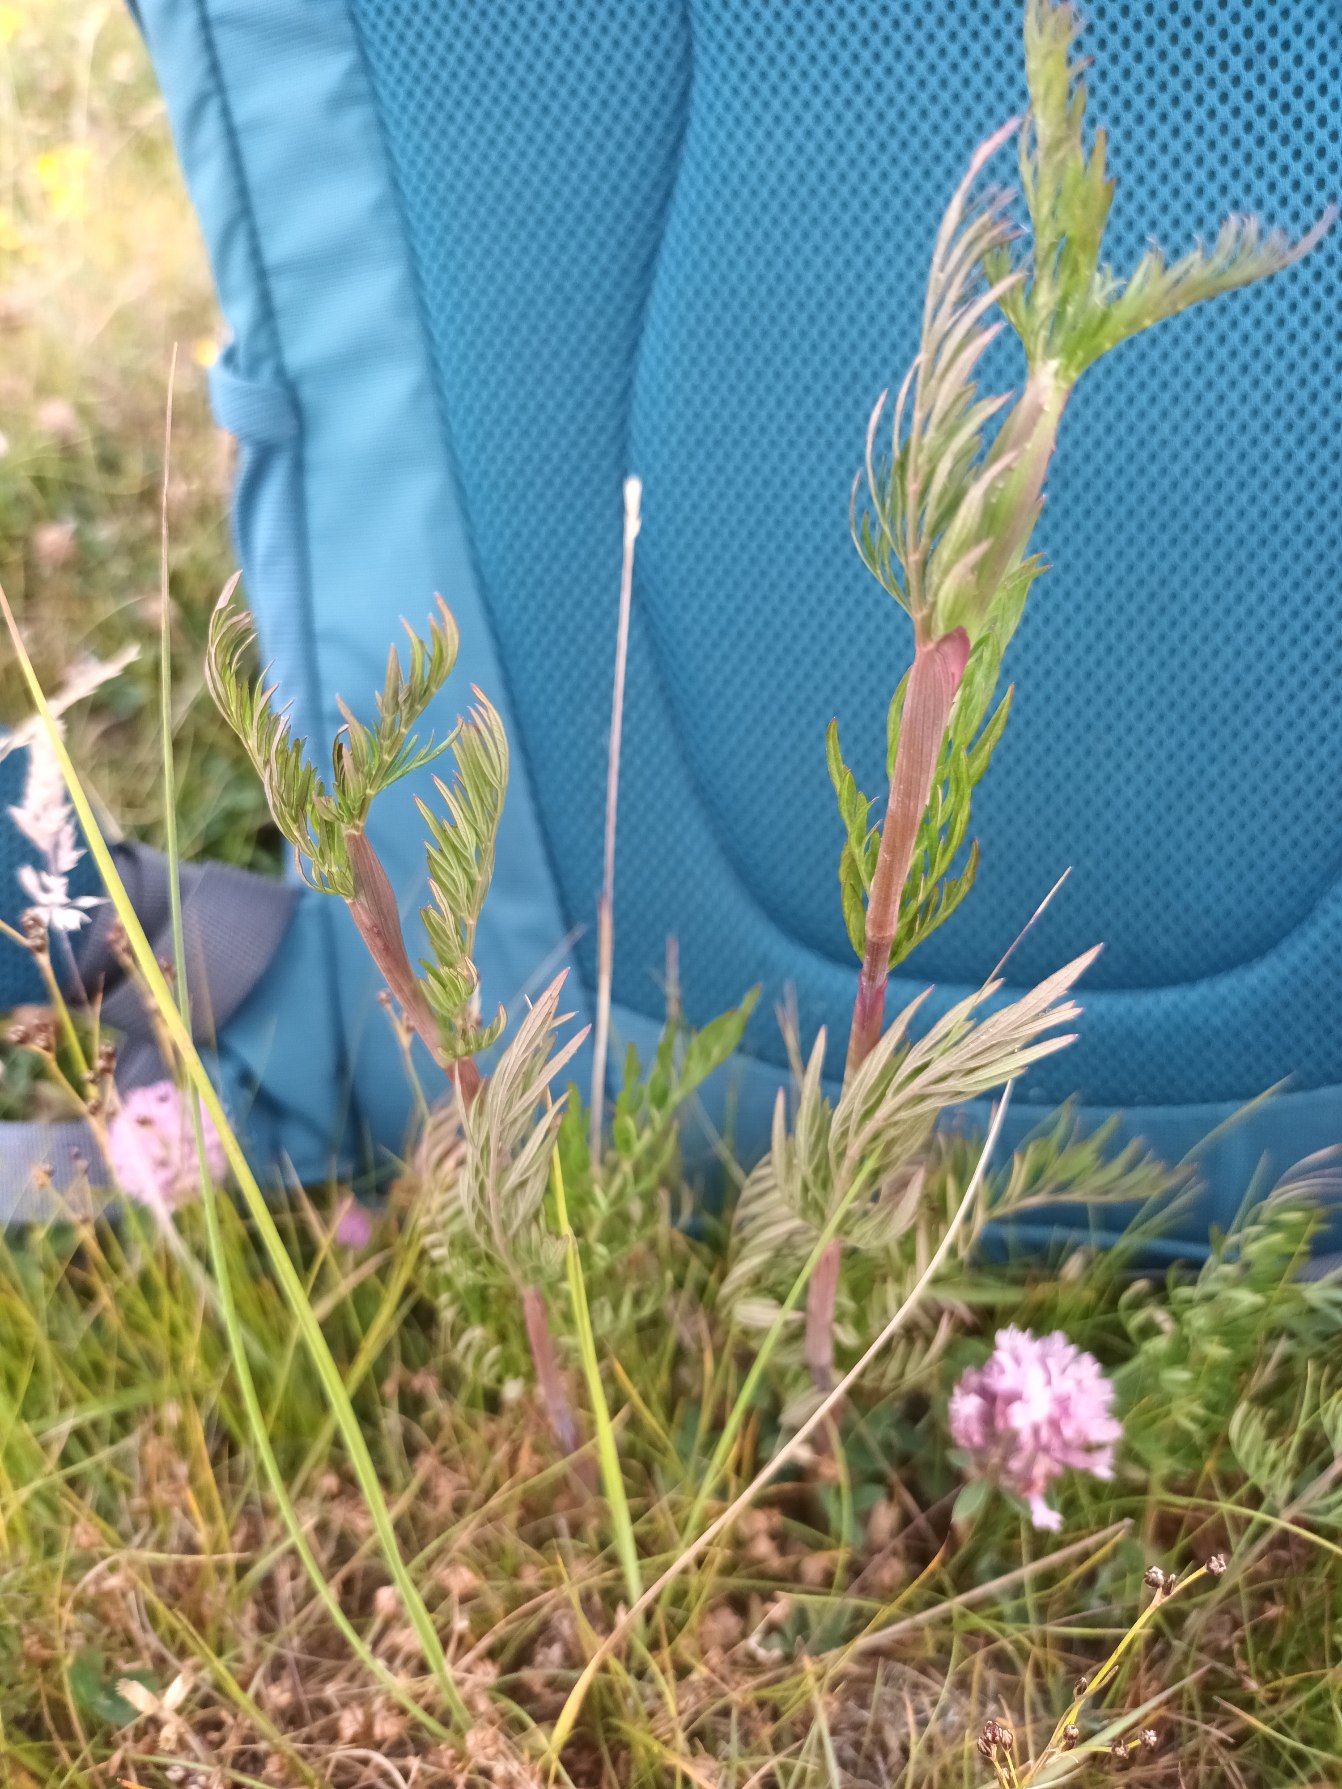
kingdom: Plantae
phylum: Tracheophyta
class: Magnoliopsida
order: Apiales
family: Apiaceae
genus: Kadenia
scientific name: Kadenia dubia
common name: Brændeskærm
